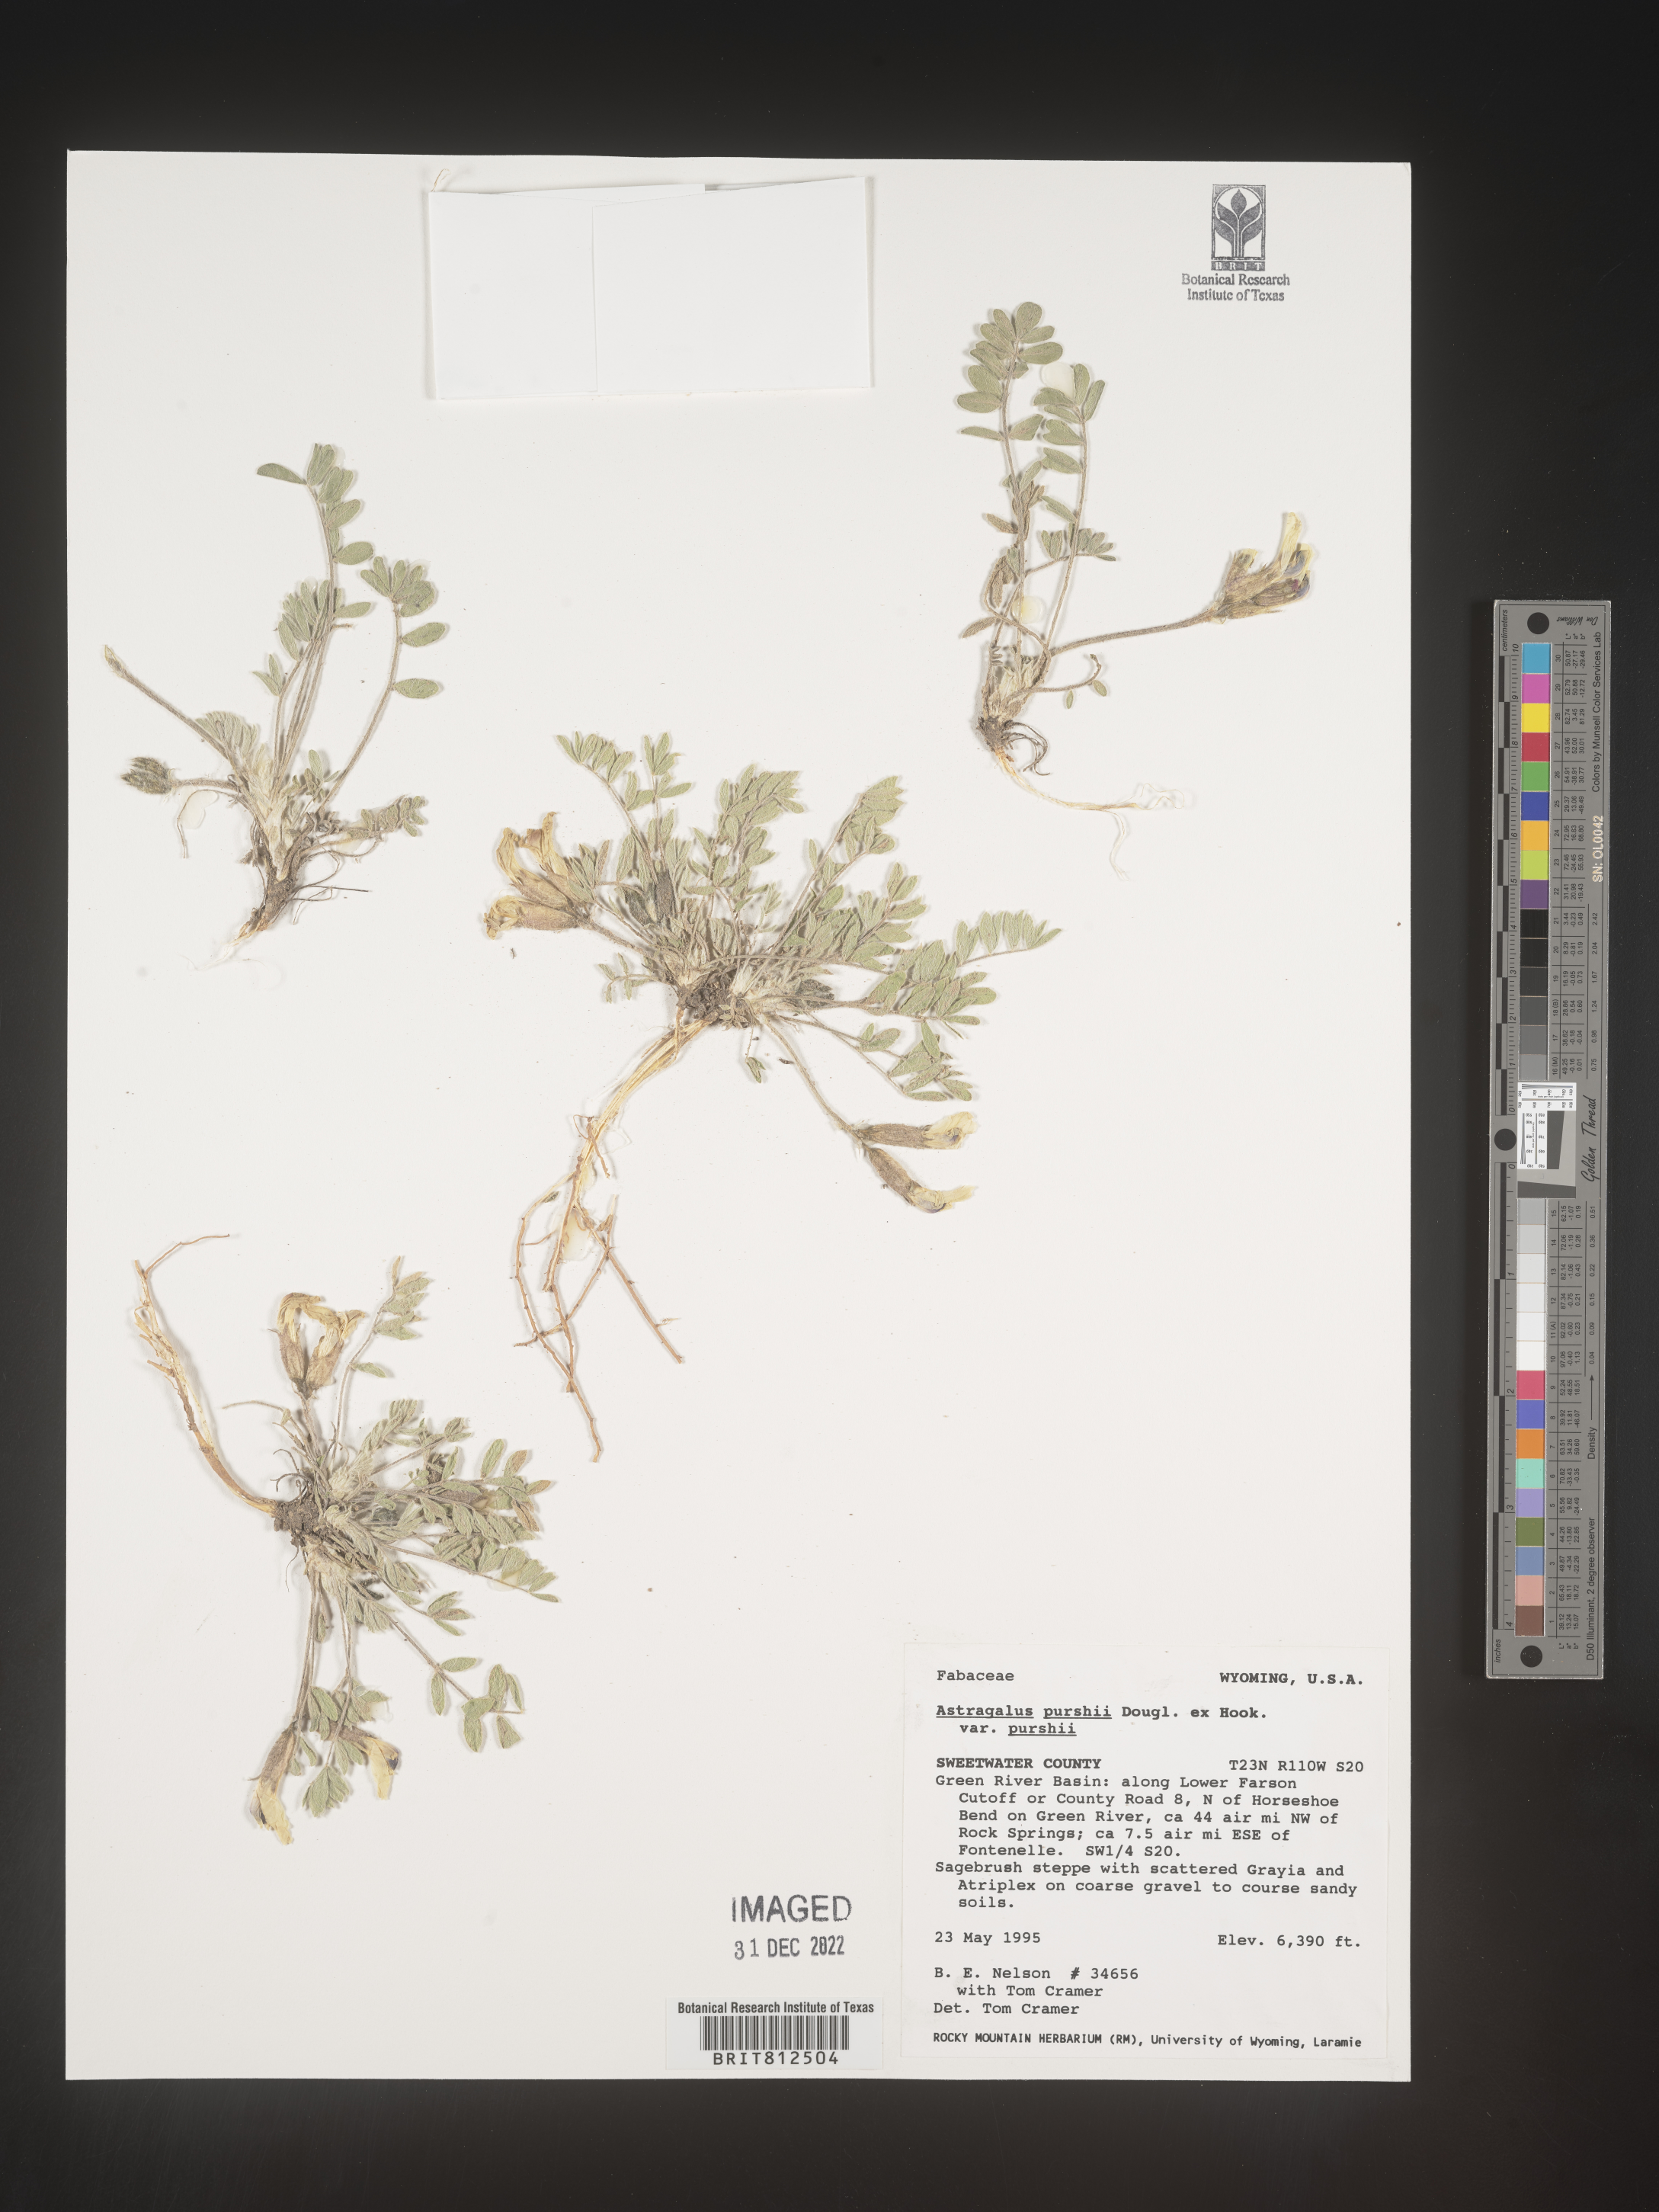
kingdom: Plantae
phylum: Tracheophyta
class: Magnoliopsida
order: Fabales
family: Fabaceae
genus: Astragalus
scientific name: Astragalus leucolobus
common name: Big bear valley woollypod
